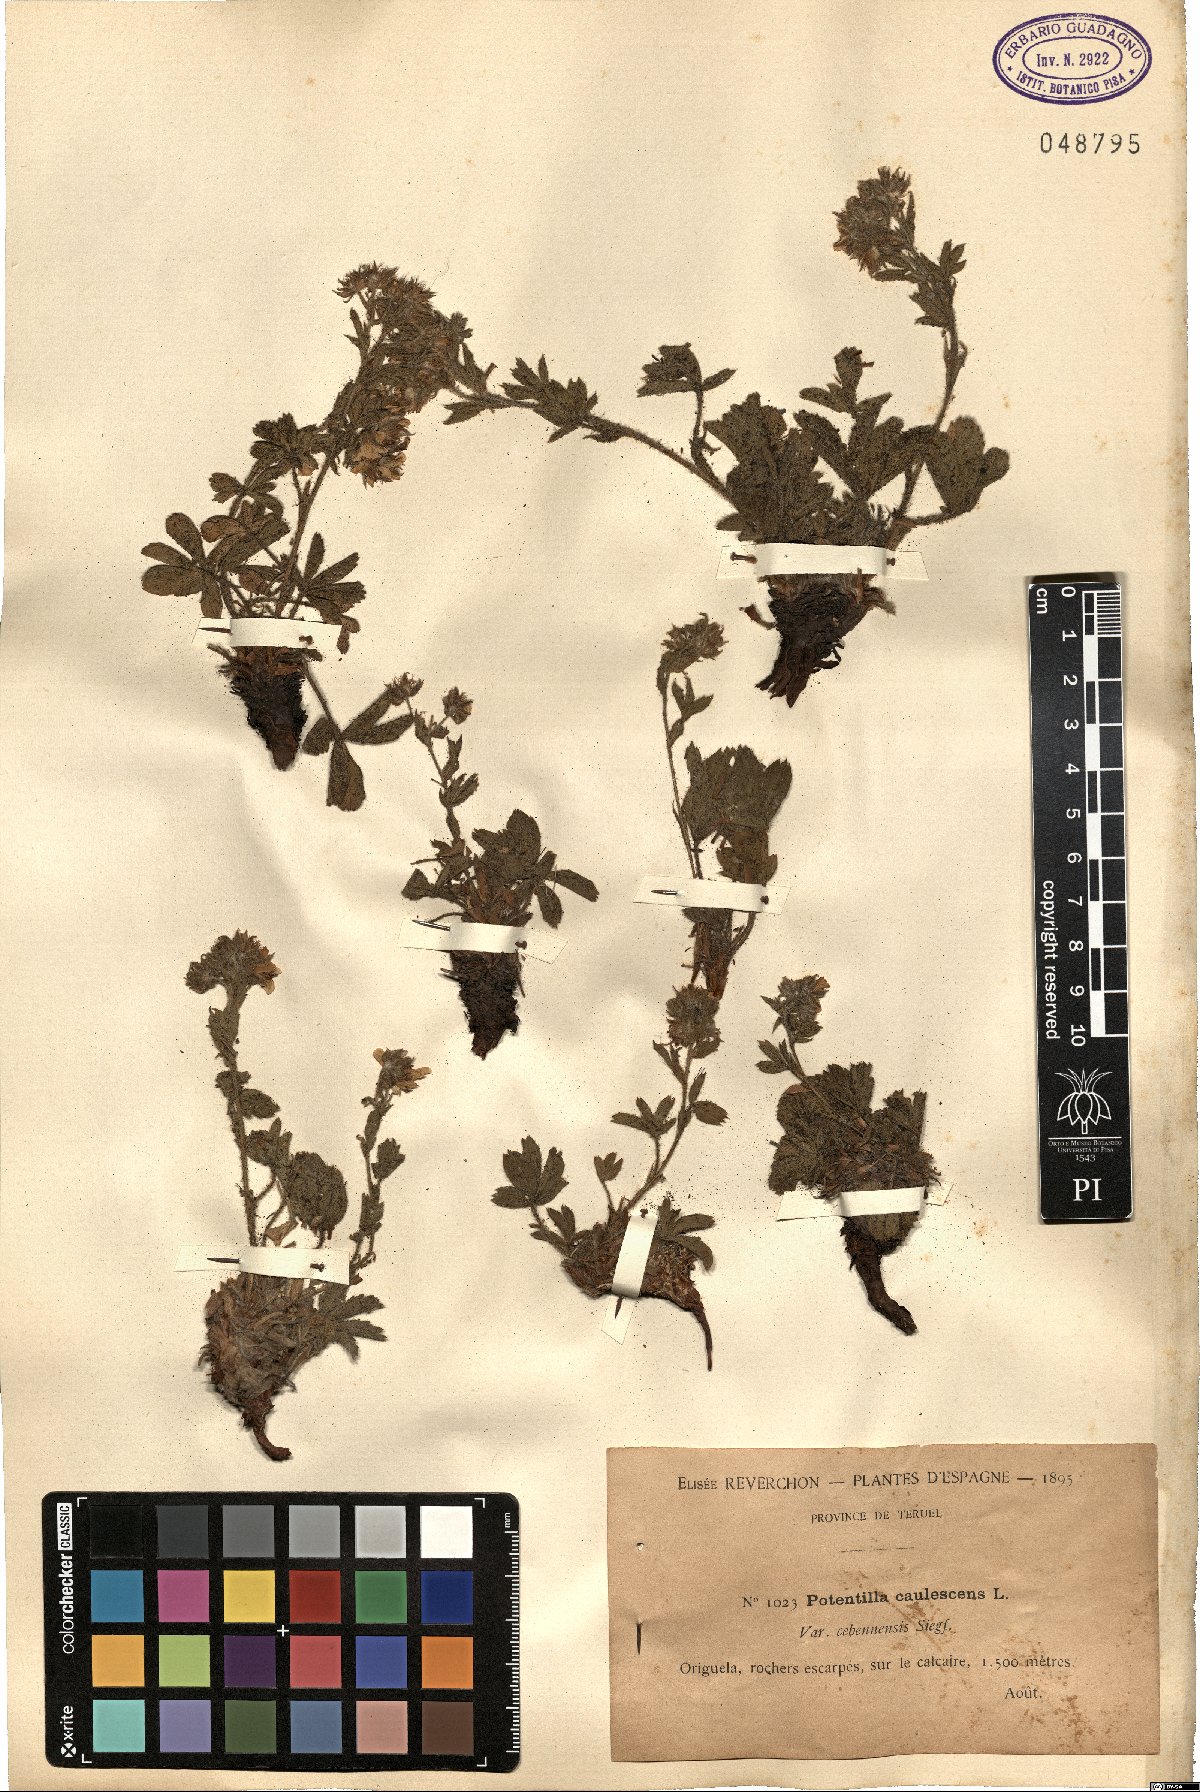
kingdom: Plantae
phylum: Tracheophyta
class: Magnoliopsida
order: Rosales
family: Rosaceae
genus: Potentilla
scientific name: Potentilla caulescens
